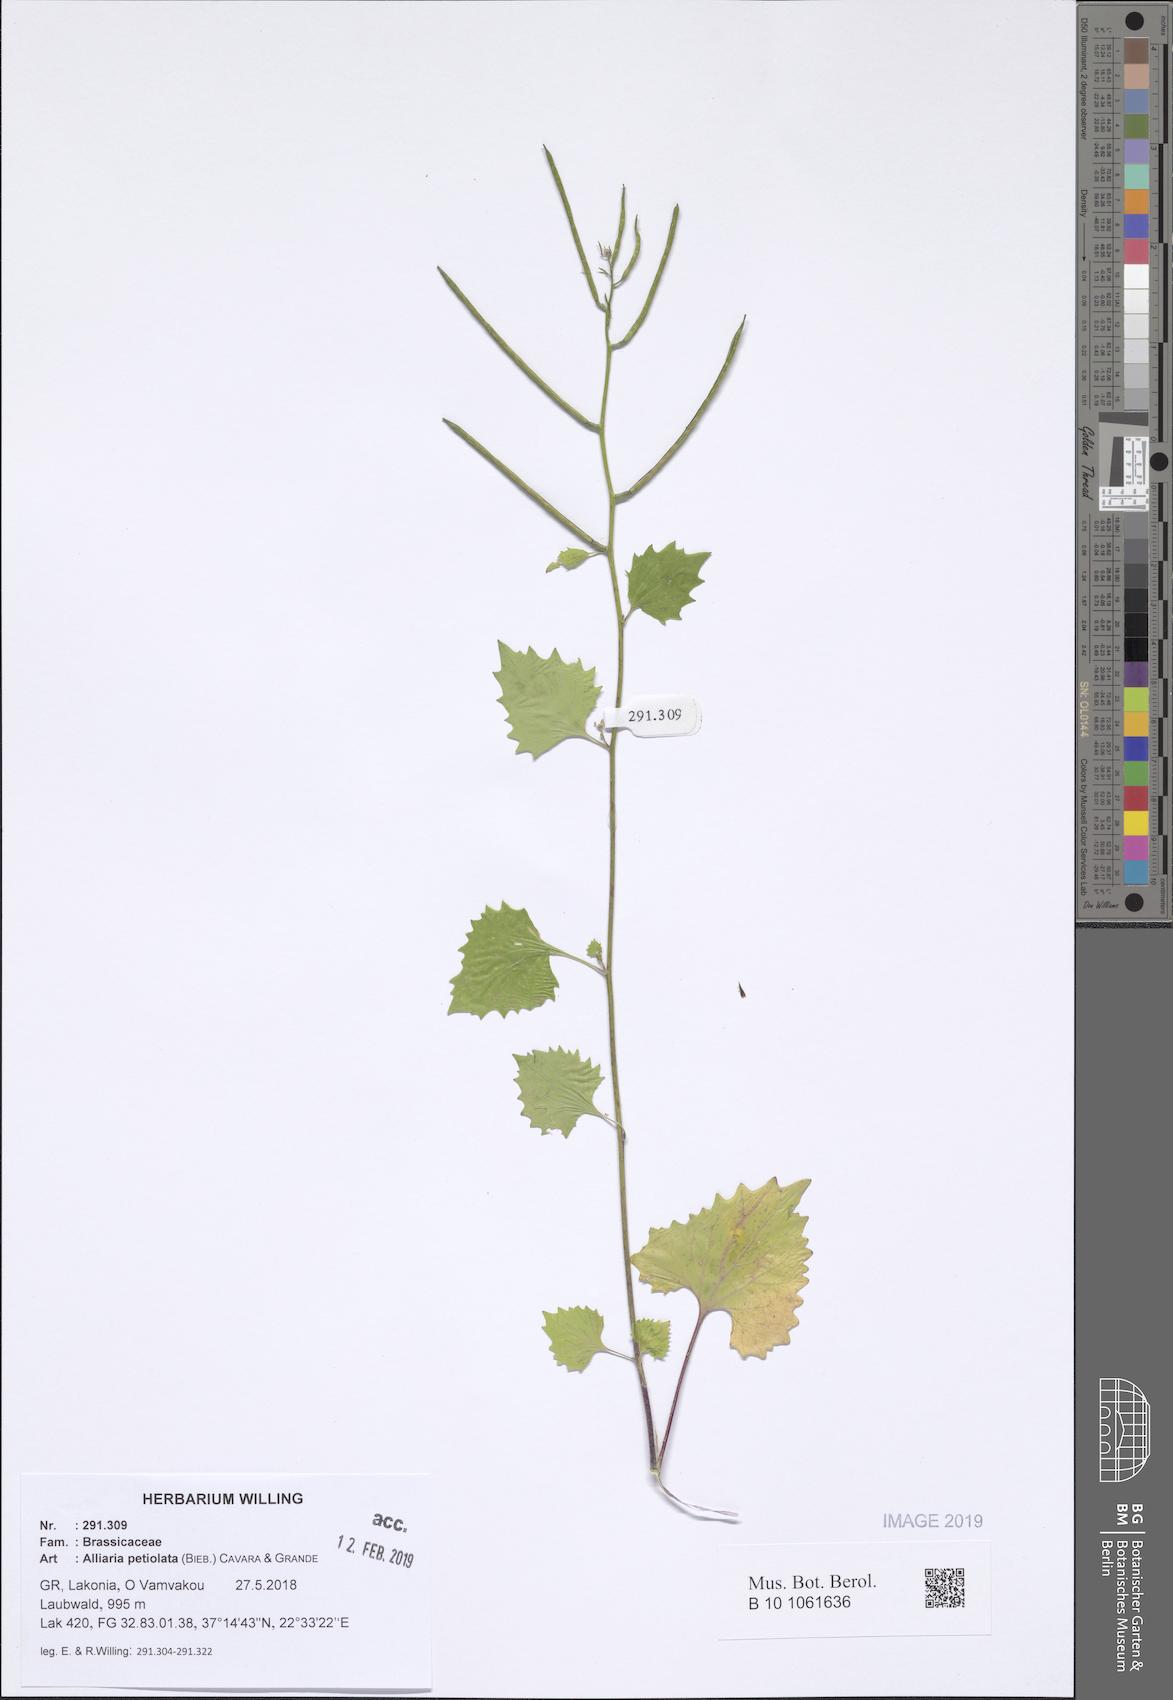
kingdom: Plantae
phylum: Tracheophyta
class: Magnoliopsida
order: Brassicales
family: Brassicaceae
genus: Alliaria
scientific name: Alliaria petiolata
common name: Garlic mustard
